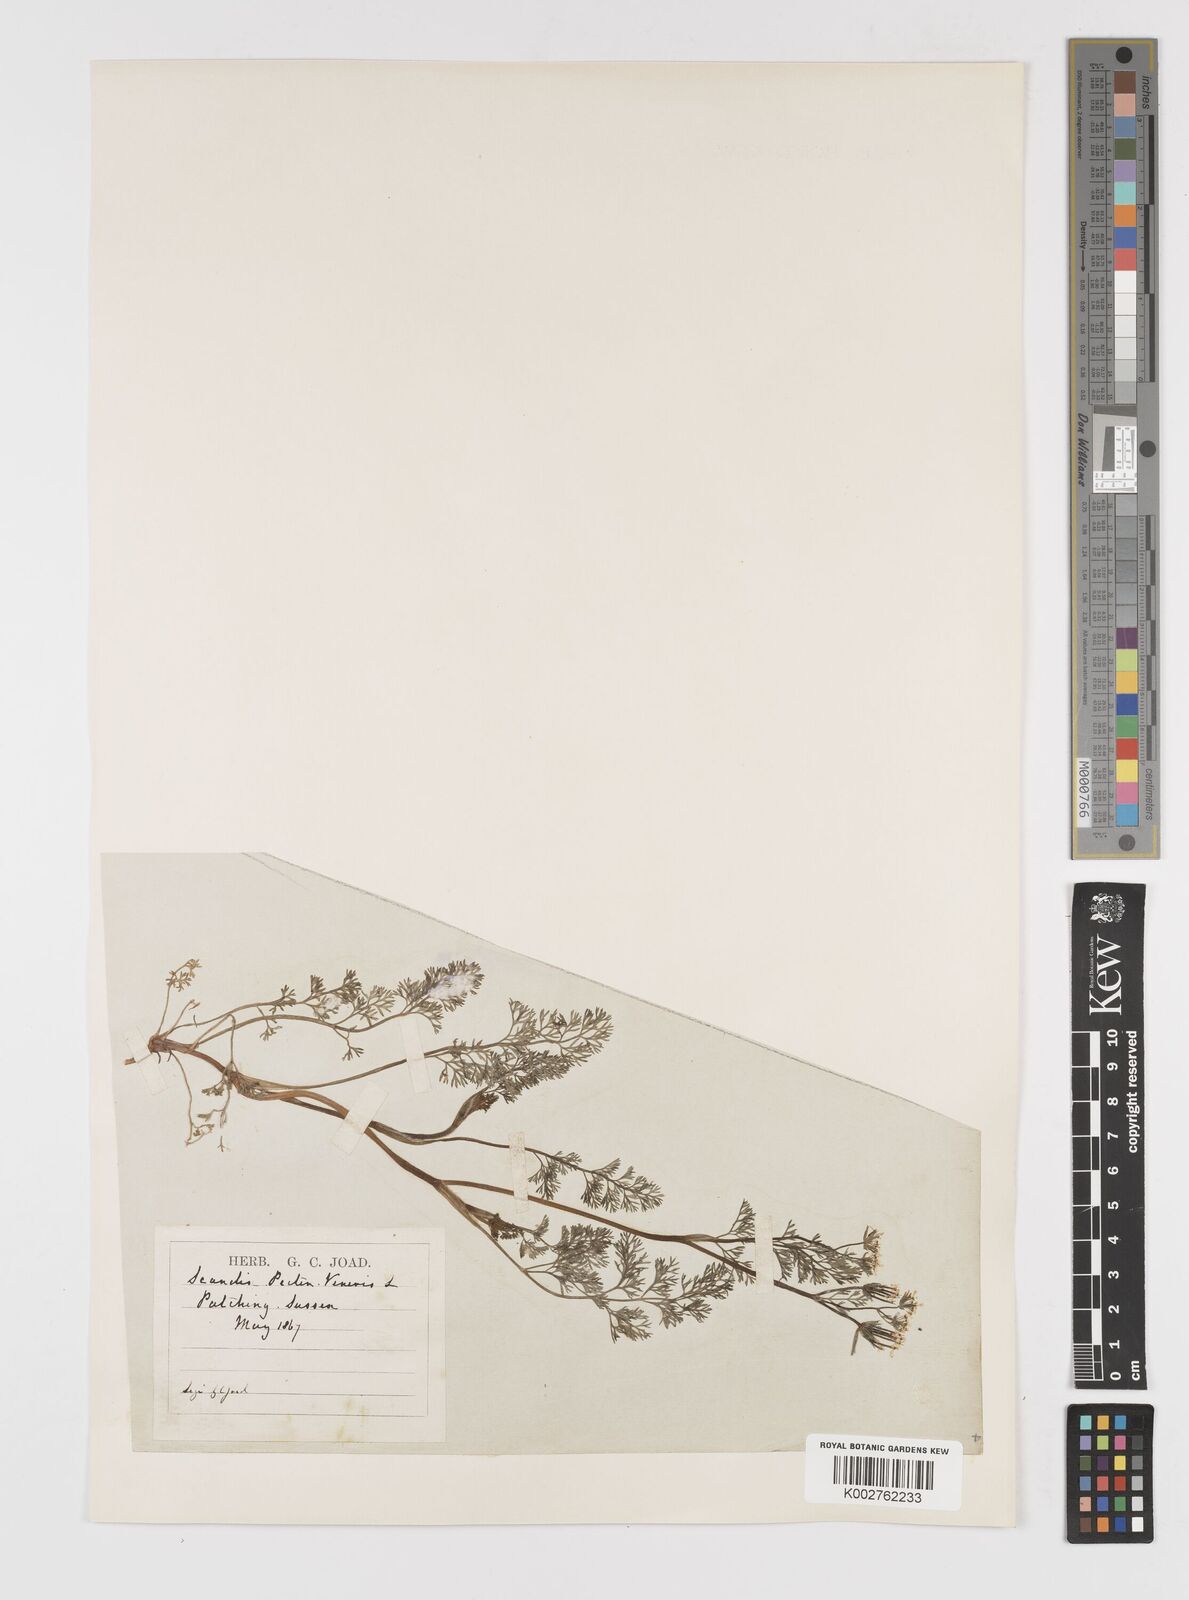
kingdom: Plantae
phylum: Tracheophyta
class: Magnoliopsida
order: Apiales
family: Apiaceae
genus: Scandix
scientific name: Scandix pecten-veneris
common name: Shepherd's-needle
